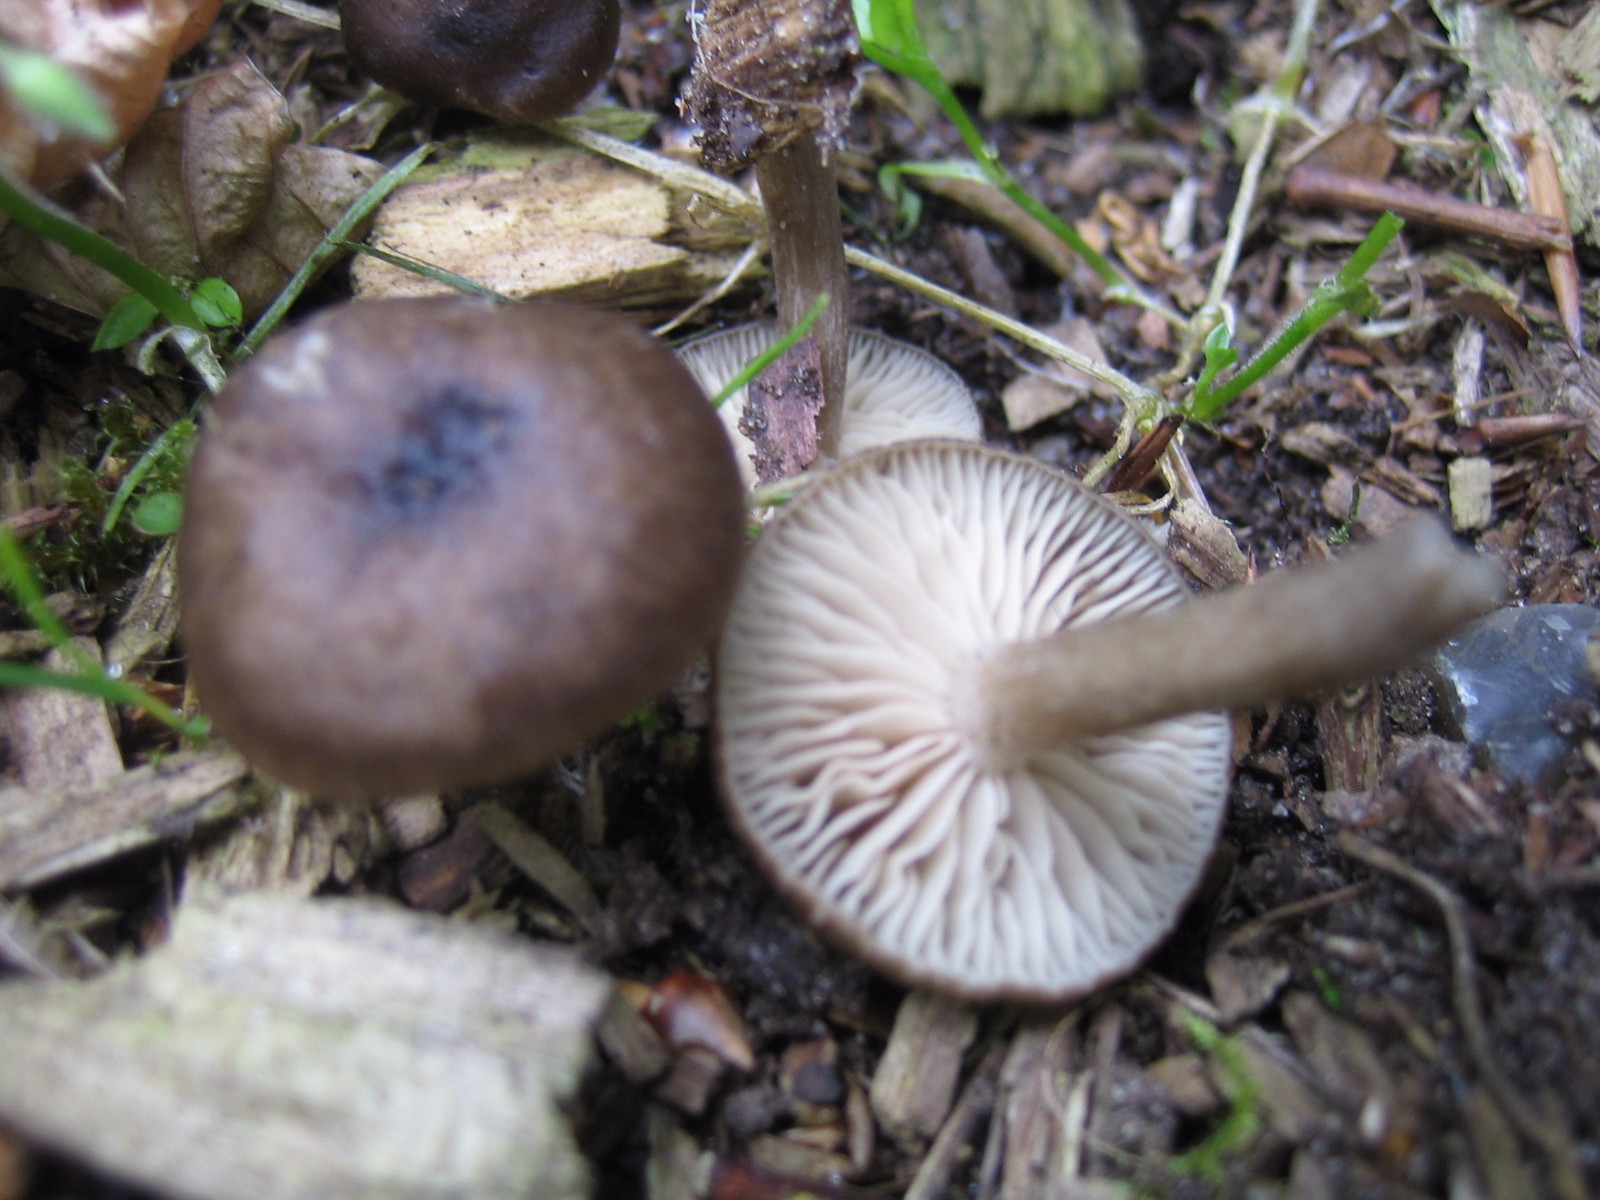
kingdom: Fungi
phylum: Basidiomycota
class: Agaricomycetes
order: Agaricales
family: Entolomataceae
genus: Entoloma
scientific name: Entoloma
